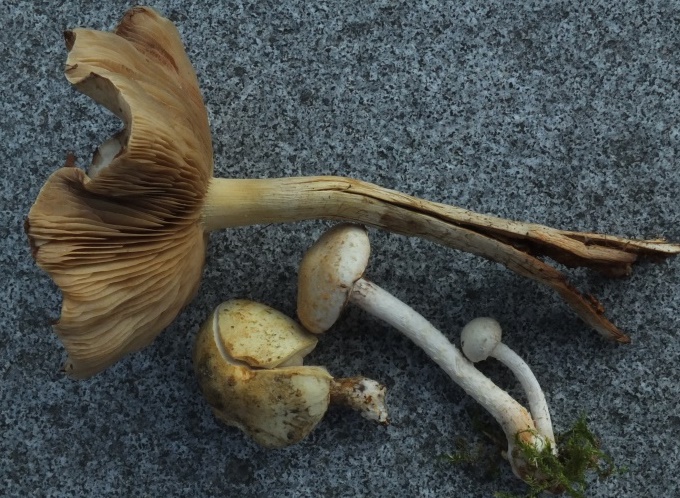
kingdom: Fungi
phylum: Basidiomycota
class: Agaricomycetes
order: Agaricales
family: Strophariaceae
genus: Pholiota
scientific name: Pholiota gummosa
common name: grøngul skælhat
